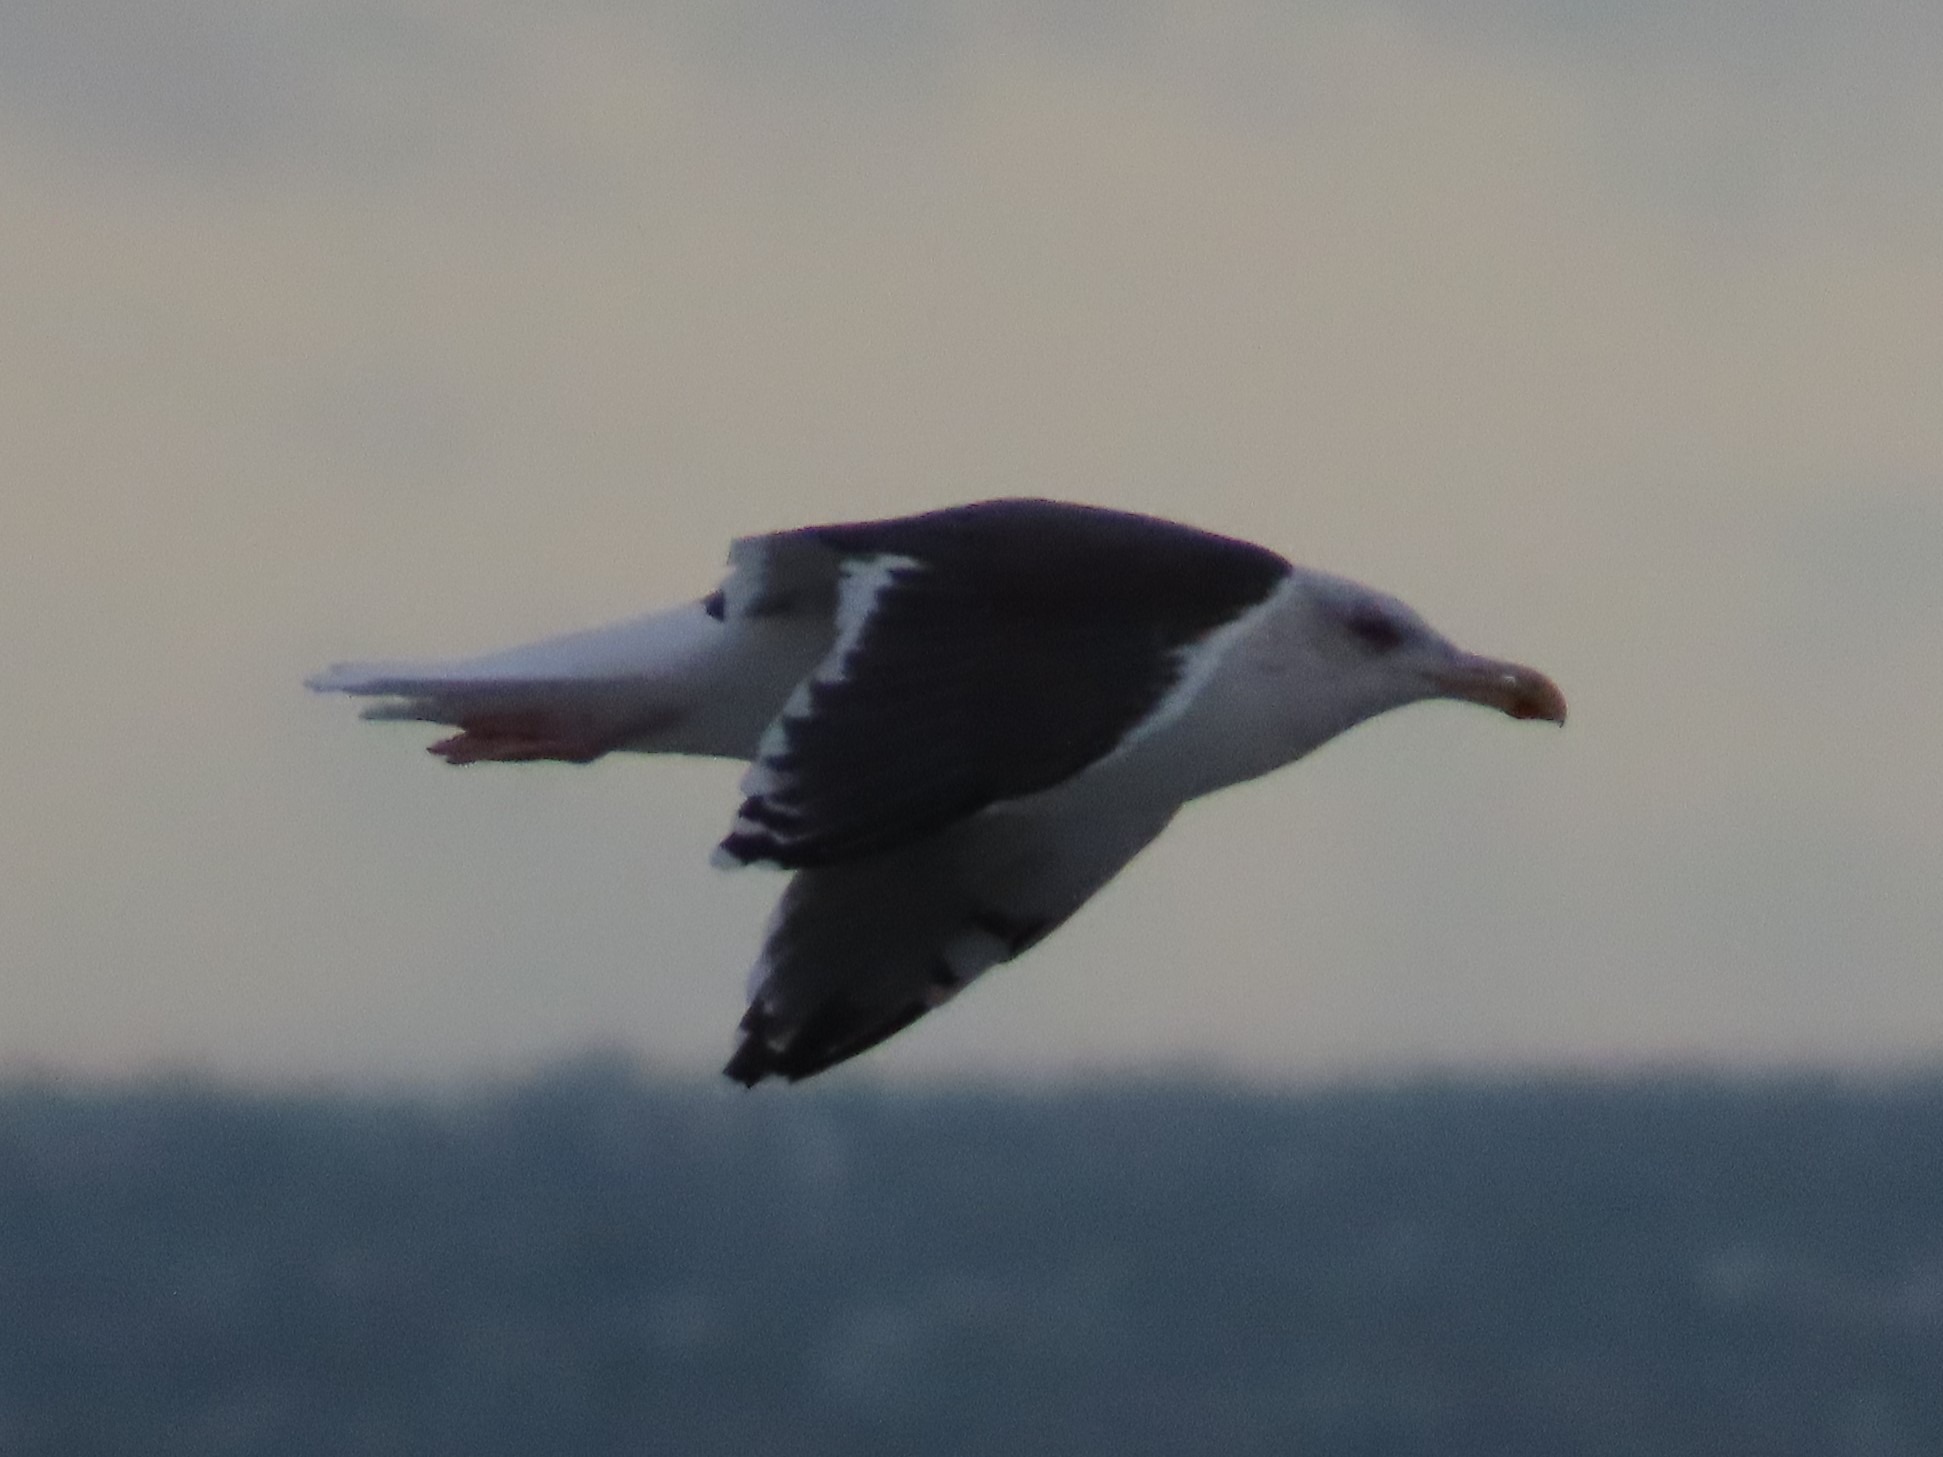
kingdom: Animalia
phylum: Chordata
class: Aves
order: Charadriiformes
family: Laridae
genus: Larus
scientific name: Larus marinus
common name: Svartbag
